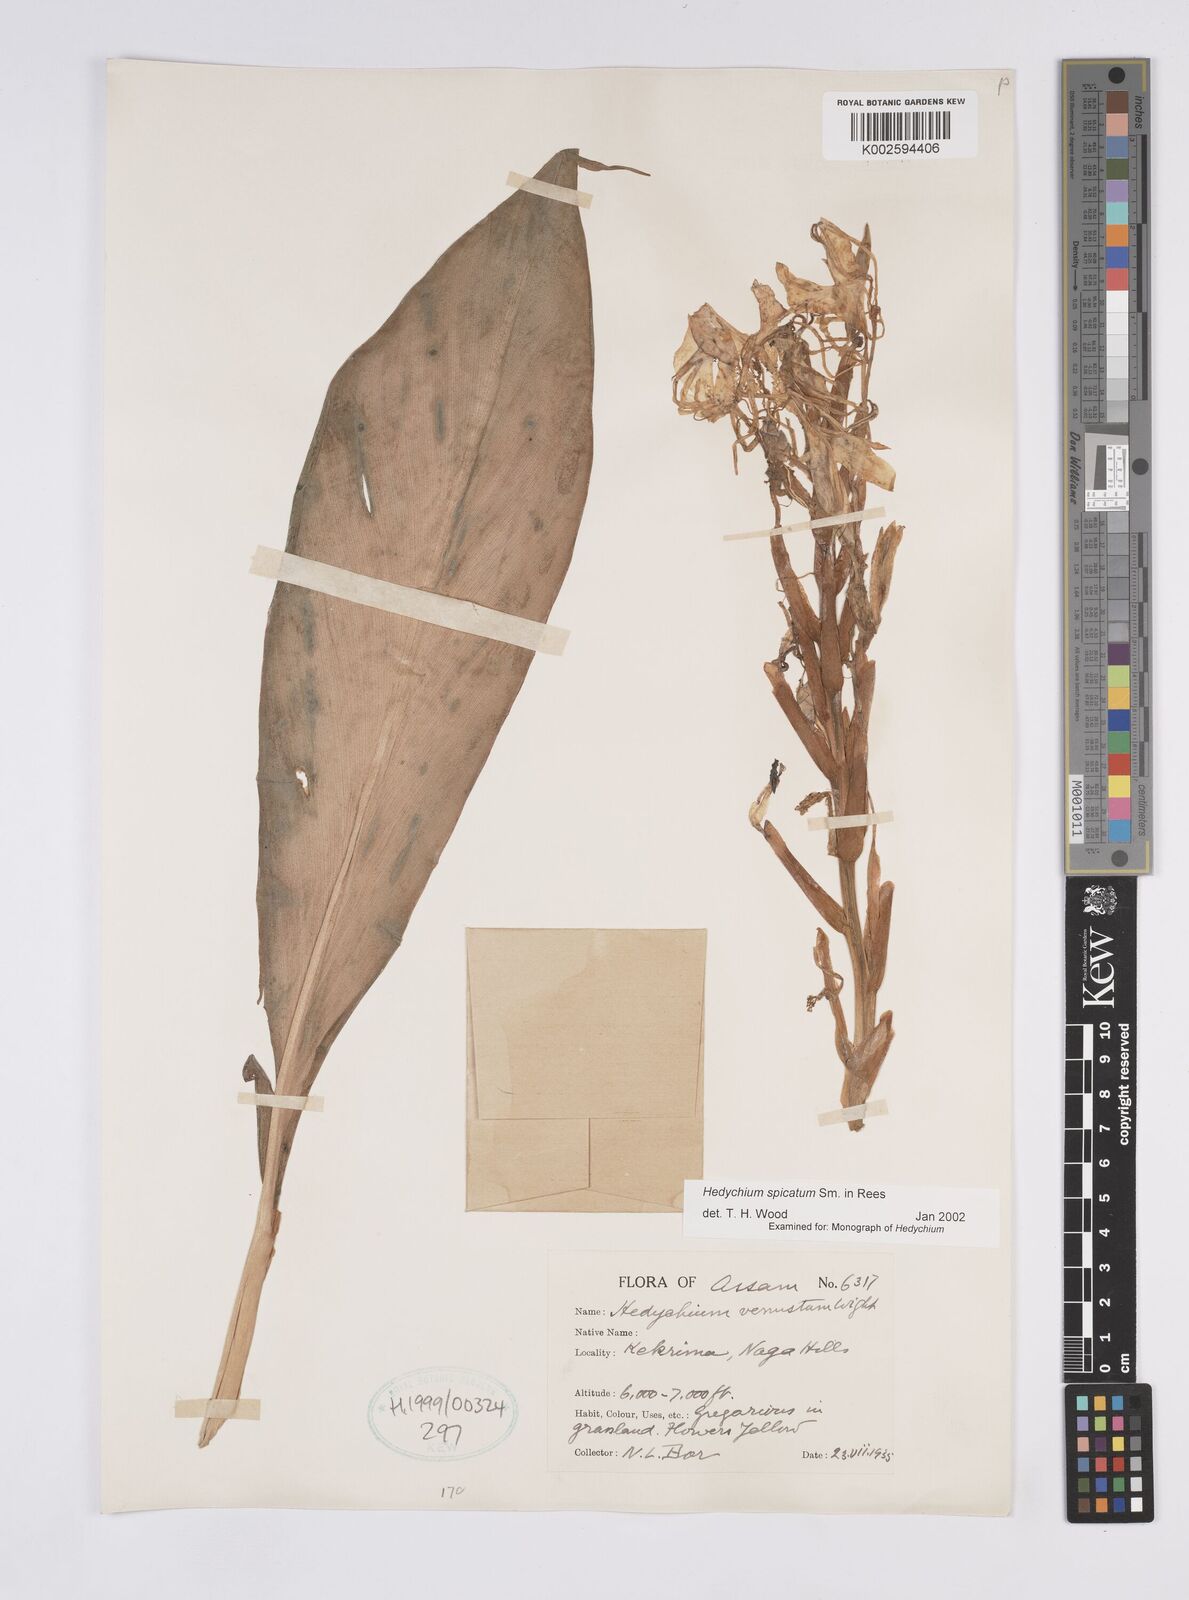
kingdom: Plantae
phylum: Tracheophyta
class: Liliopsida
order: Zingiberales
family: Zingiberaceae
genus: Hedychium
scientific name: Hedychium spicatum
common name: Spiked ginger-lily
